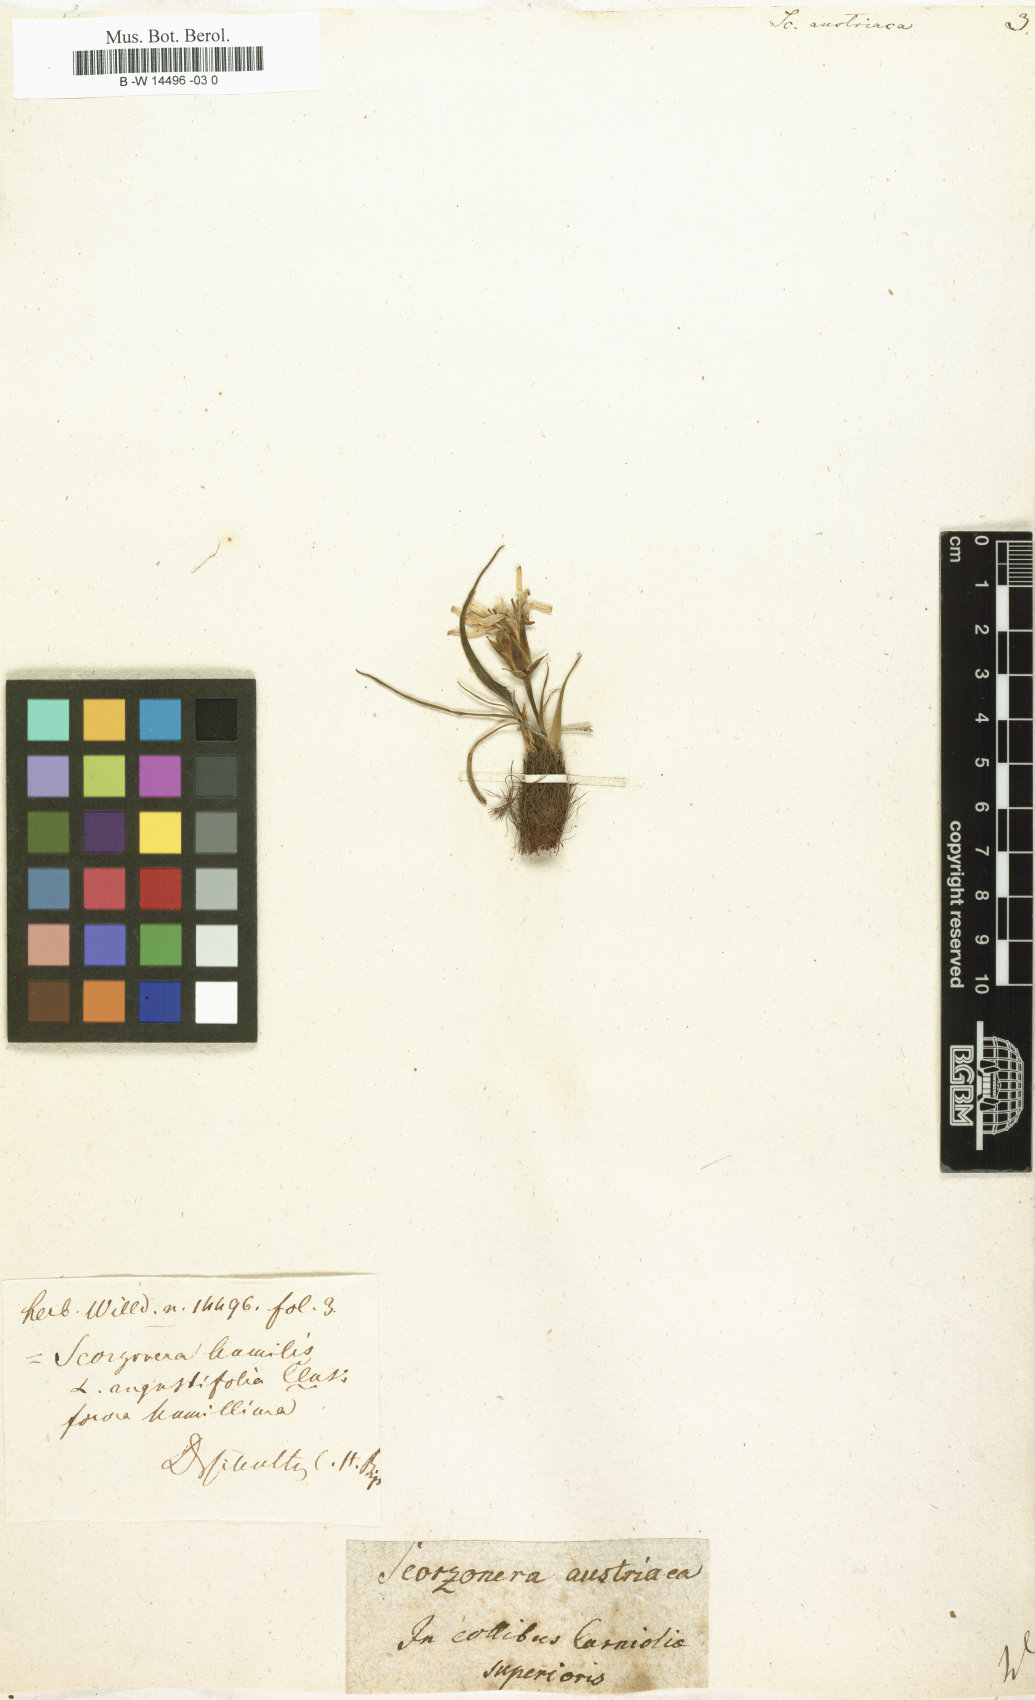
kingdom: Plantae
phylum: Tracheophyta
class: Magnoliopsida
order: Asterales
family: Asteraceae
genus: Scorzonera
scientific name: Scorzonera austriaca
